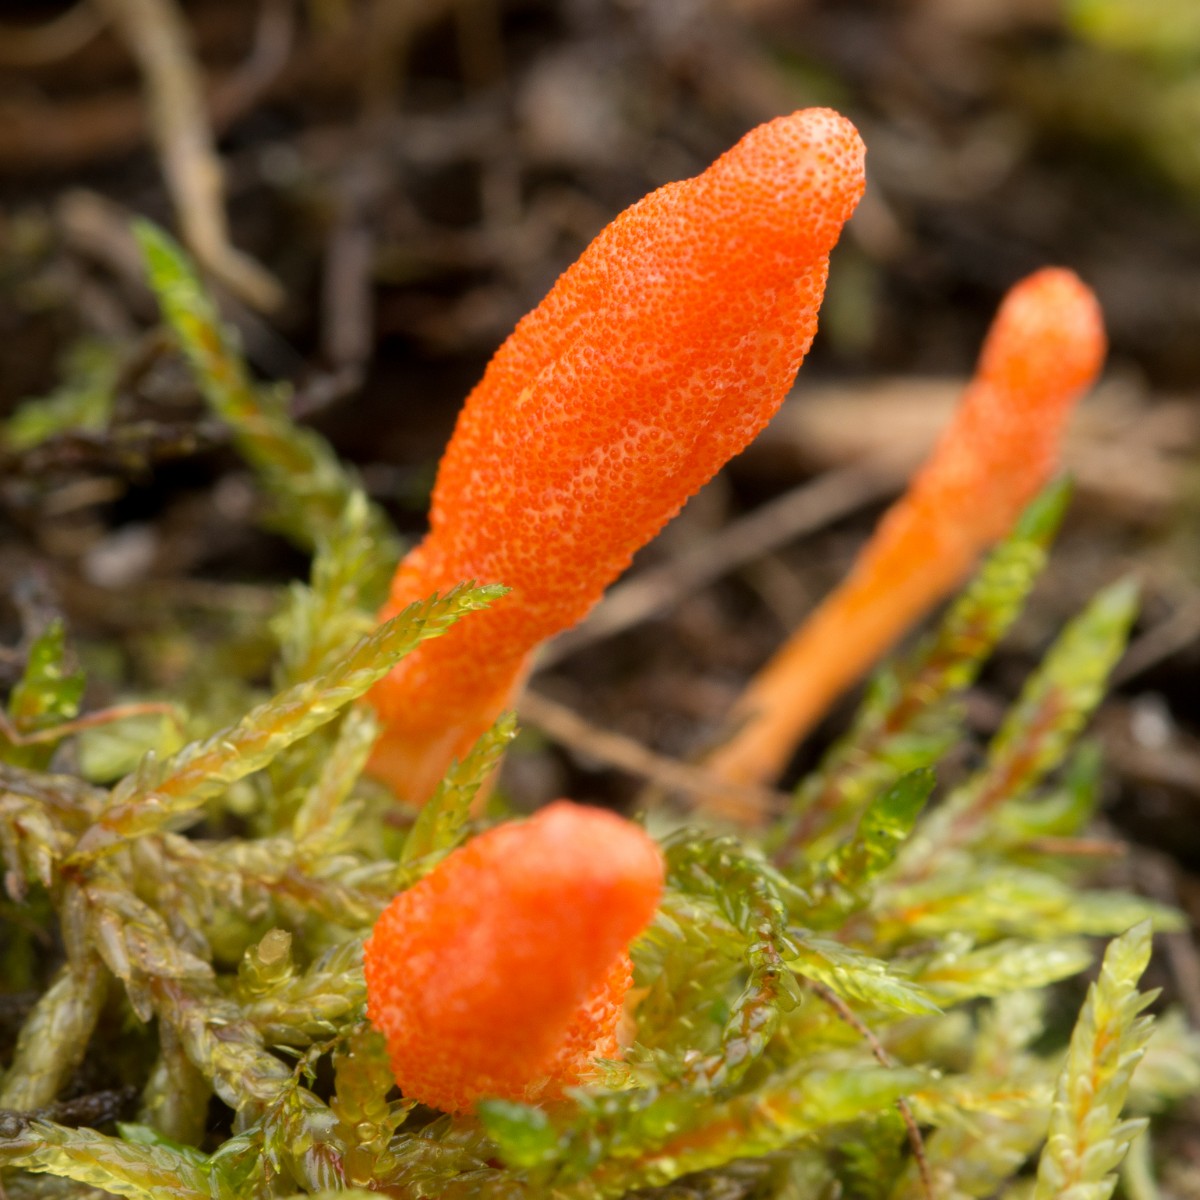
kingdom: Fungi
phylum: Ascomycota
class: Sordariomycetes
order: Hypocreales
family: Cordycipitaceae
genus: Cordyceps
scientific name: Cordyceps militaris
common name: puppe-snyltekølle
